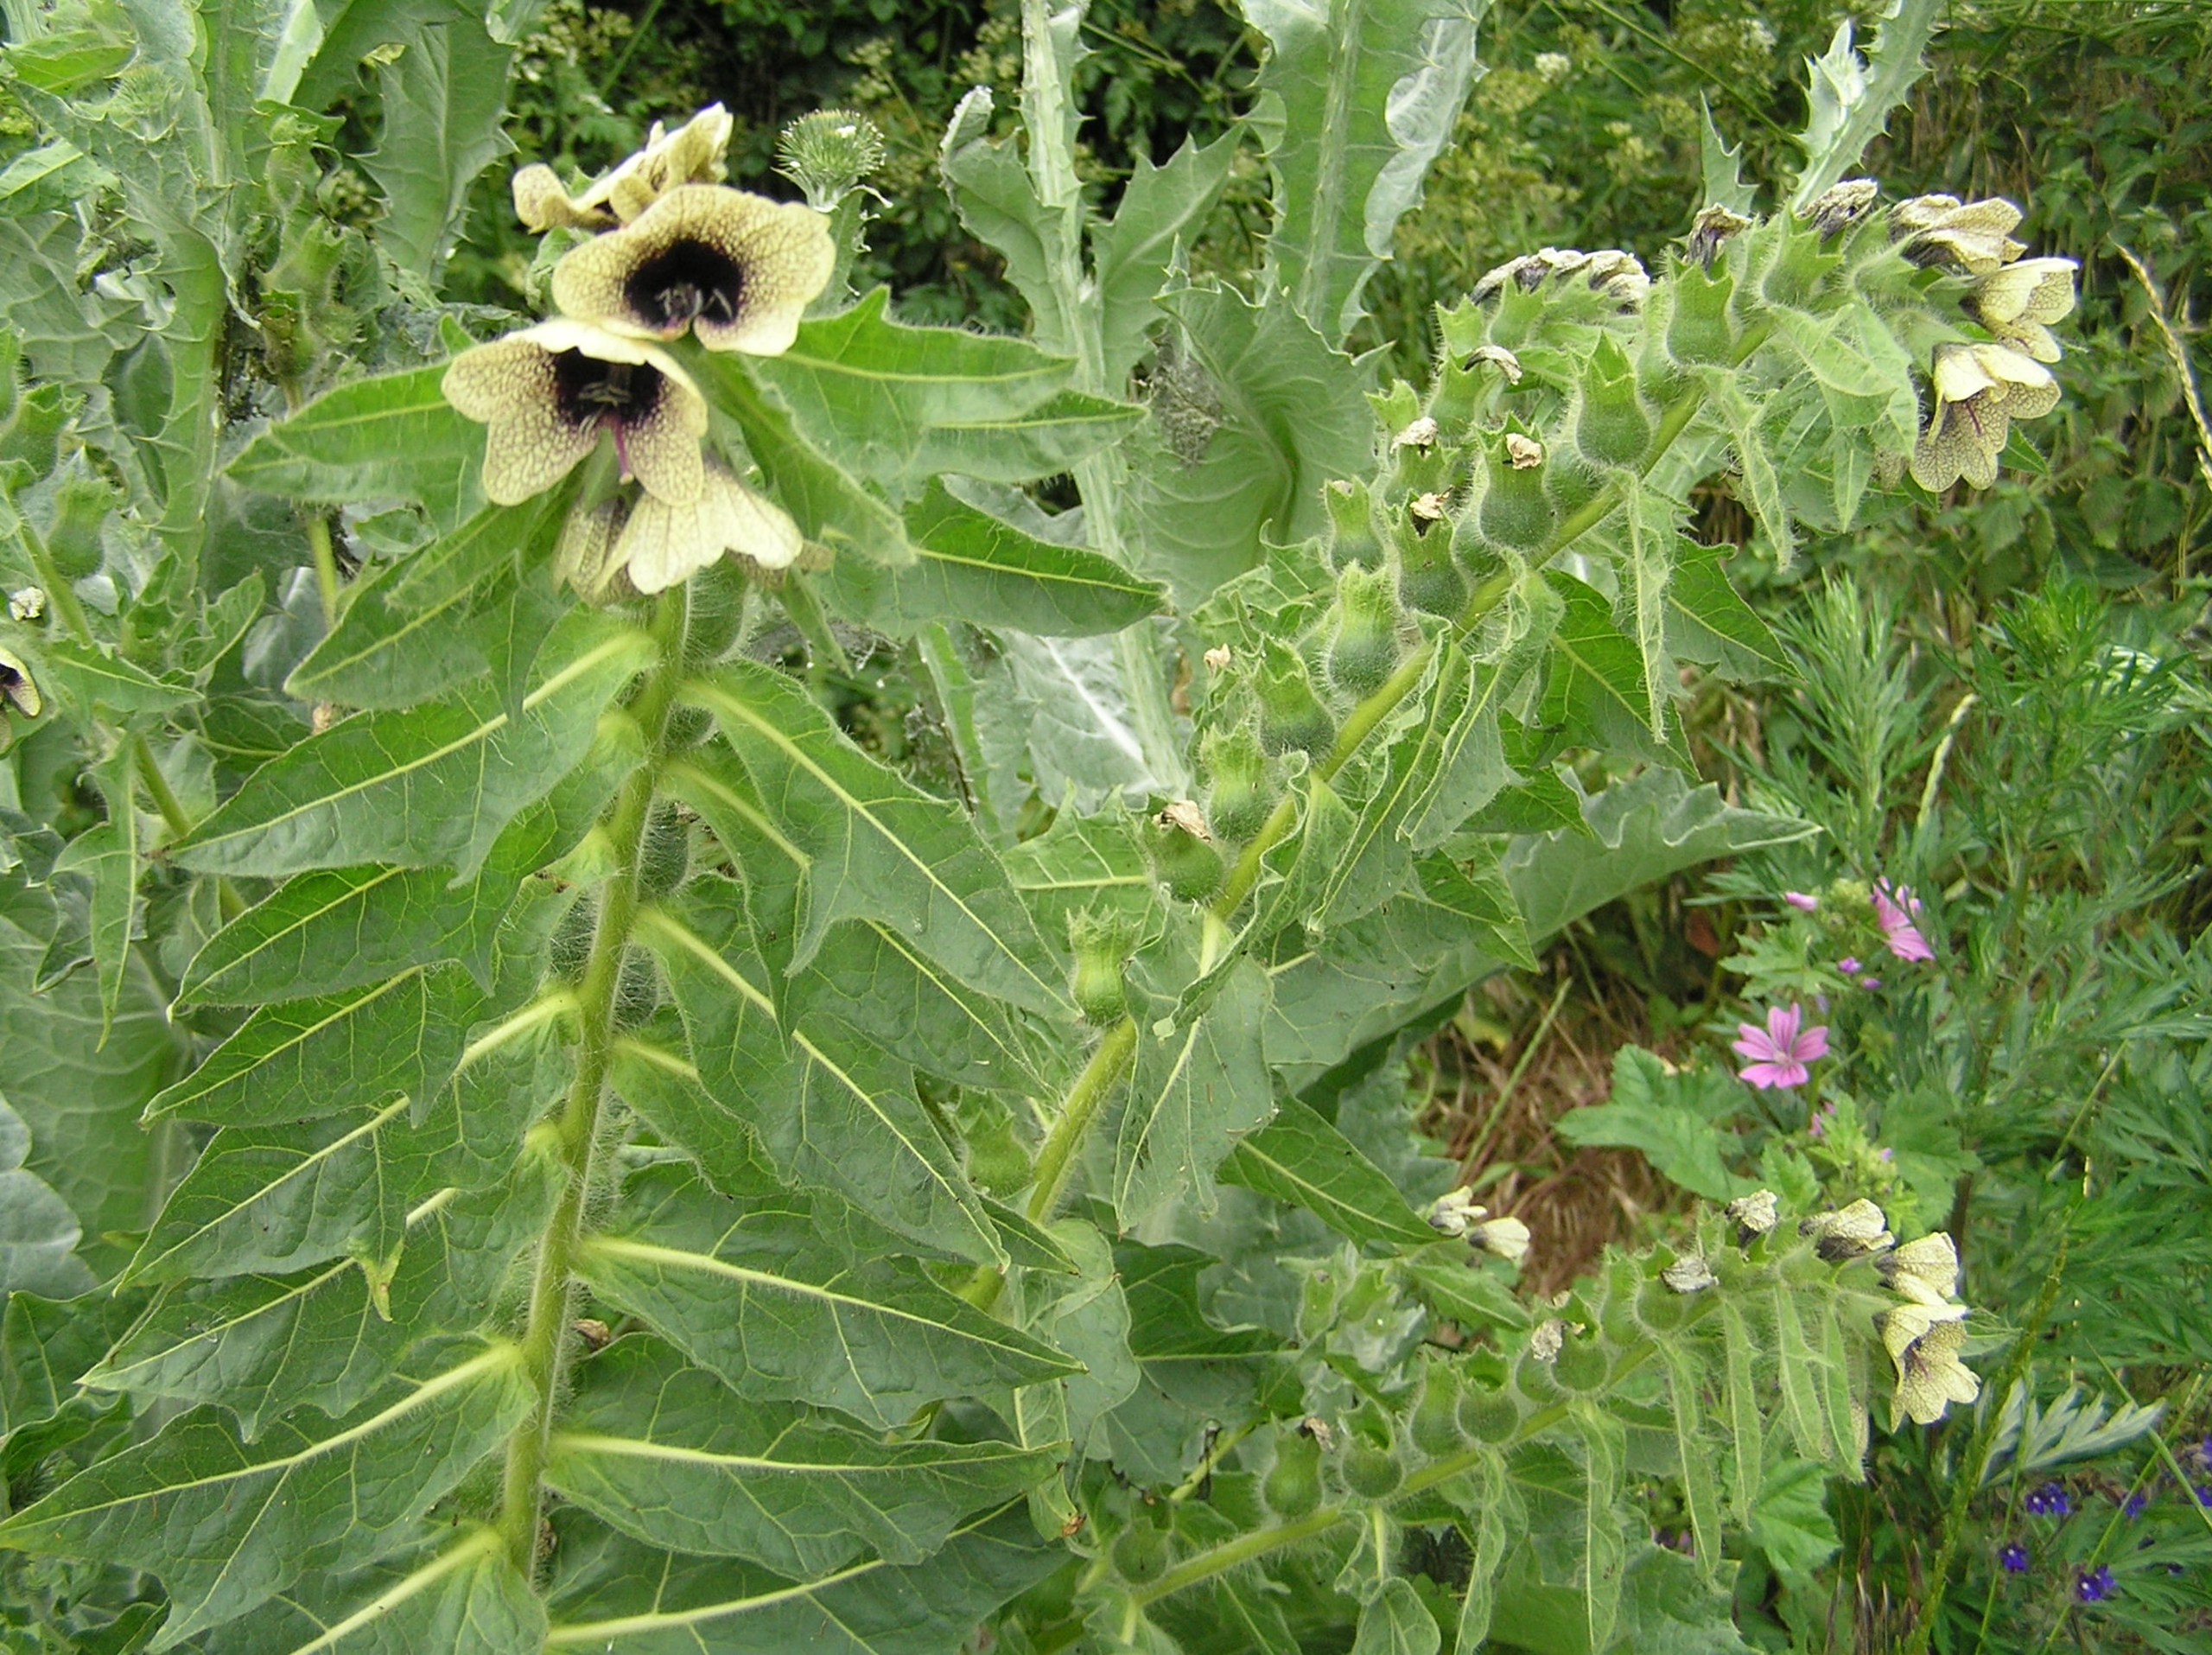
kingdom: Plantae
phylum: Tracheophyta
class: Magnoliopsida
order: Solanales
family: Solanaceae
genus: Hyoscyamus
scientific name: Hyoscyamus niger
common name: Bulmeurt
